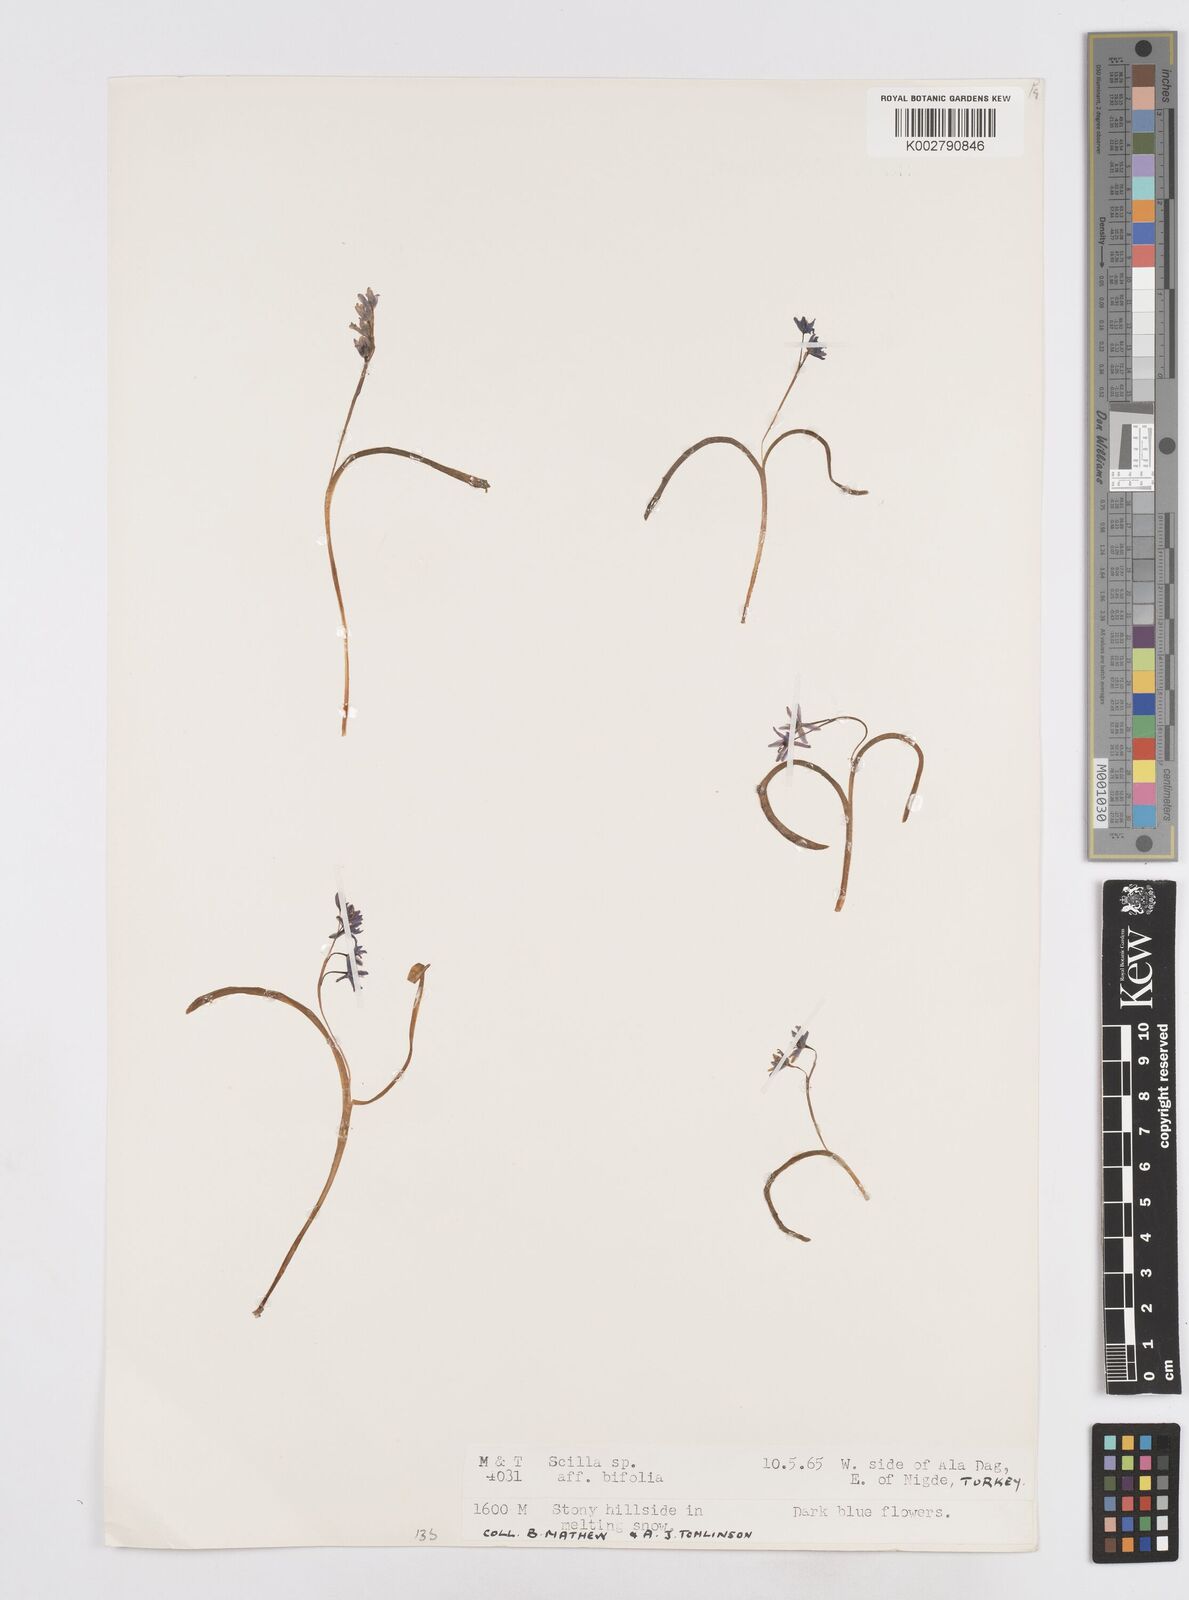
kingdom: Plantae
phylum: Tracheophyta
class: Liliopsida
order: Asparagales
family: Asparagaceae
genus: Scilla
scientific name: Scilla bifolia
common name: Alpine squill
